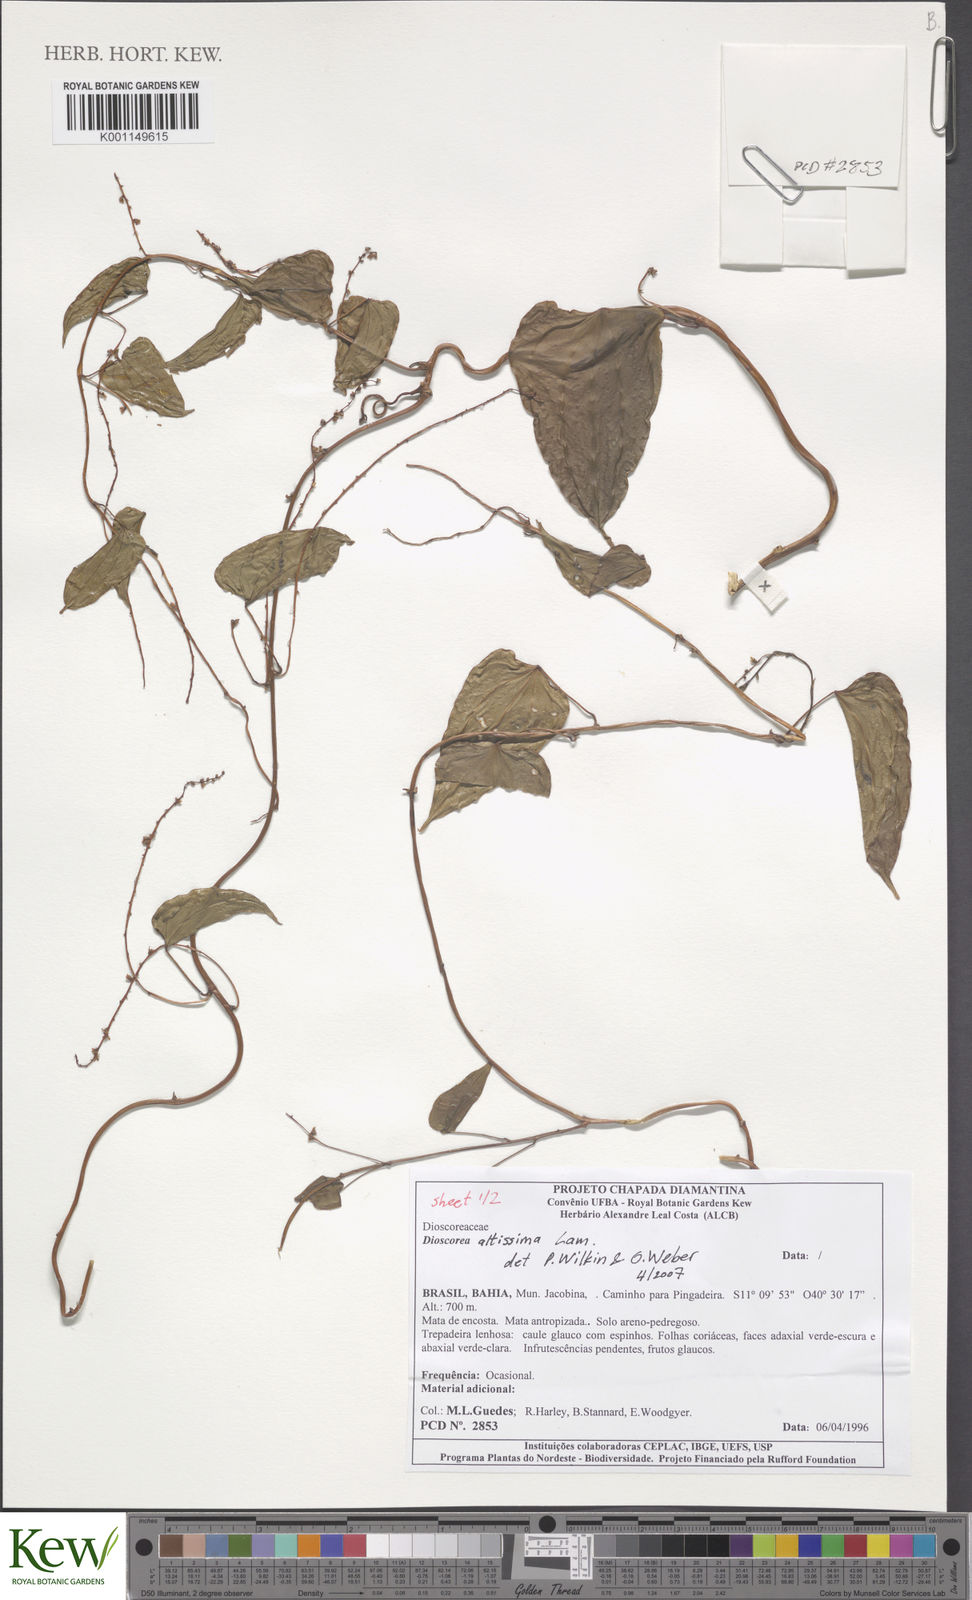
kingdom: Plantae
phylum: Tracheophyta
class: Liliopsida
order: Dioscoreales
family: Dioscoreaceae
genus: Dioscorea
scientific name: Dioscorea chondrocarpa
